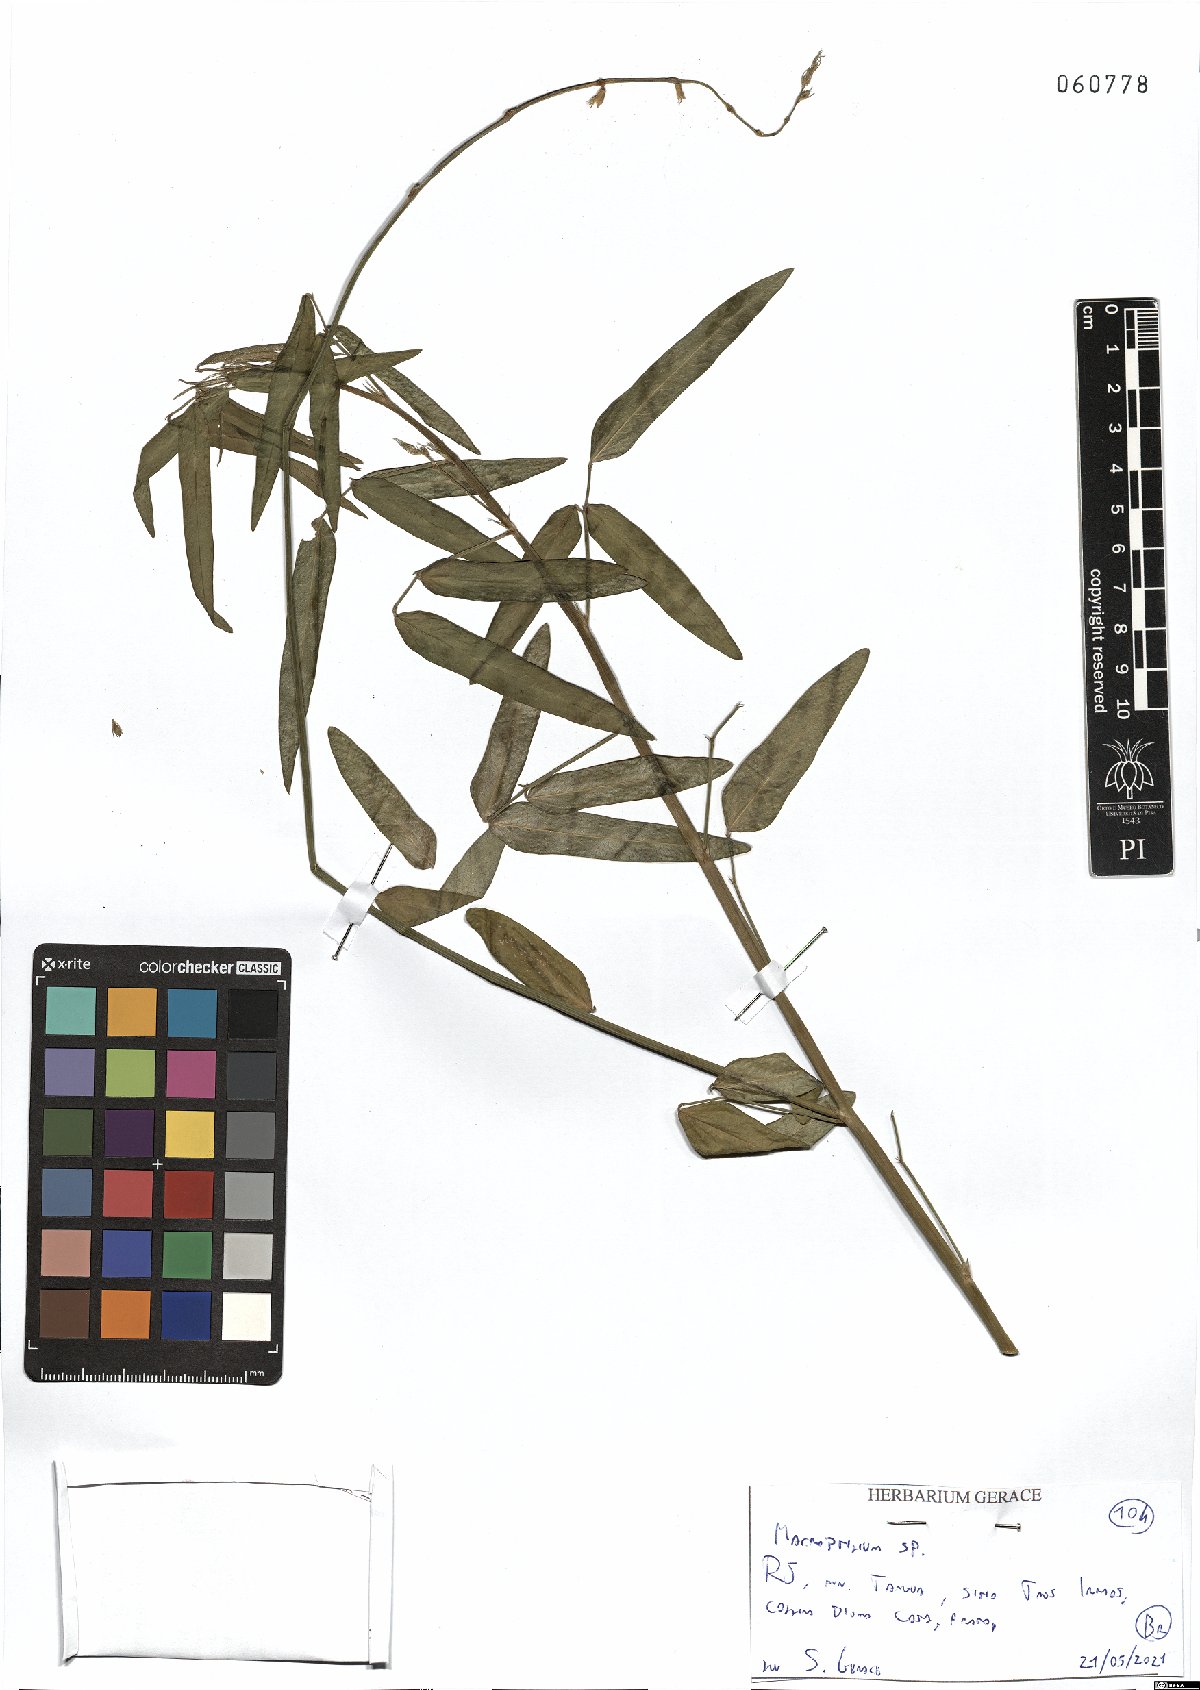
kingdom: Plantae
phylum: Tracheophyta
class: Magnoliopsida
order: Fabales
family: Fabaceae
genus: Macroptilium
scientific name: Macroptilium
